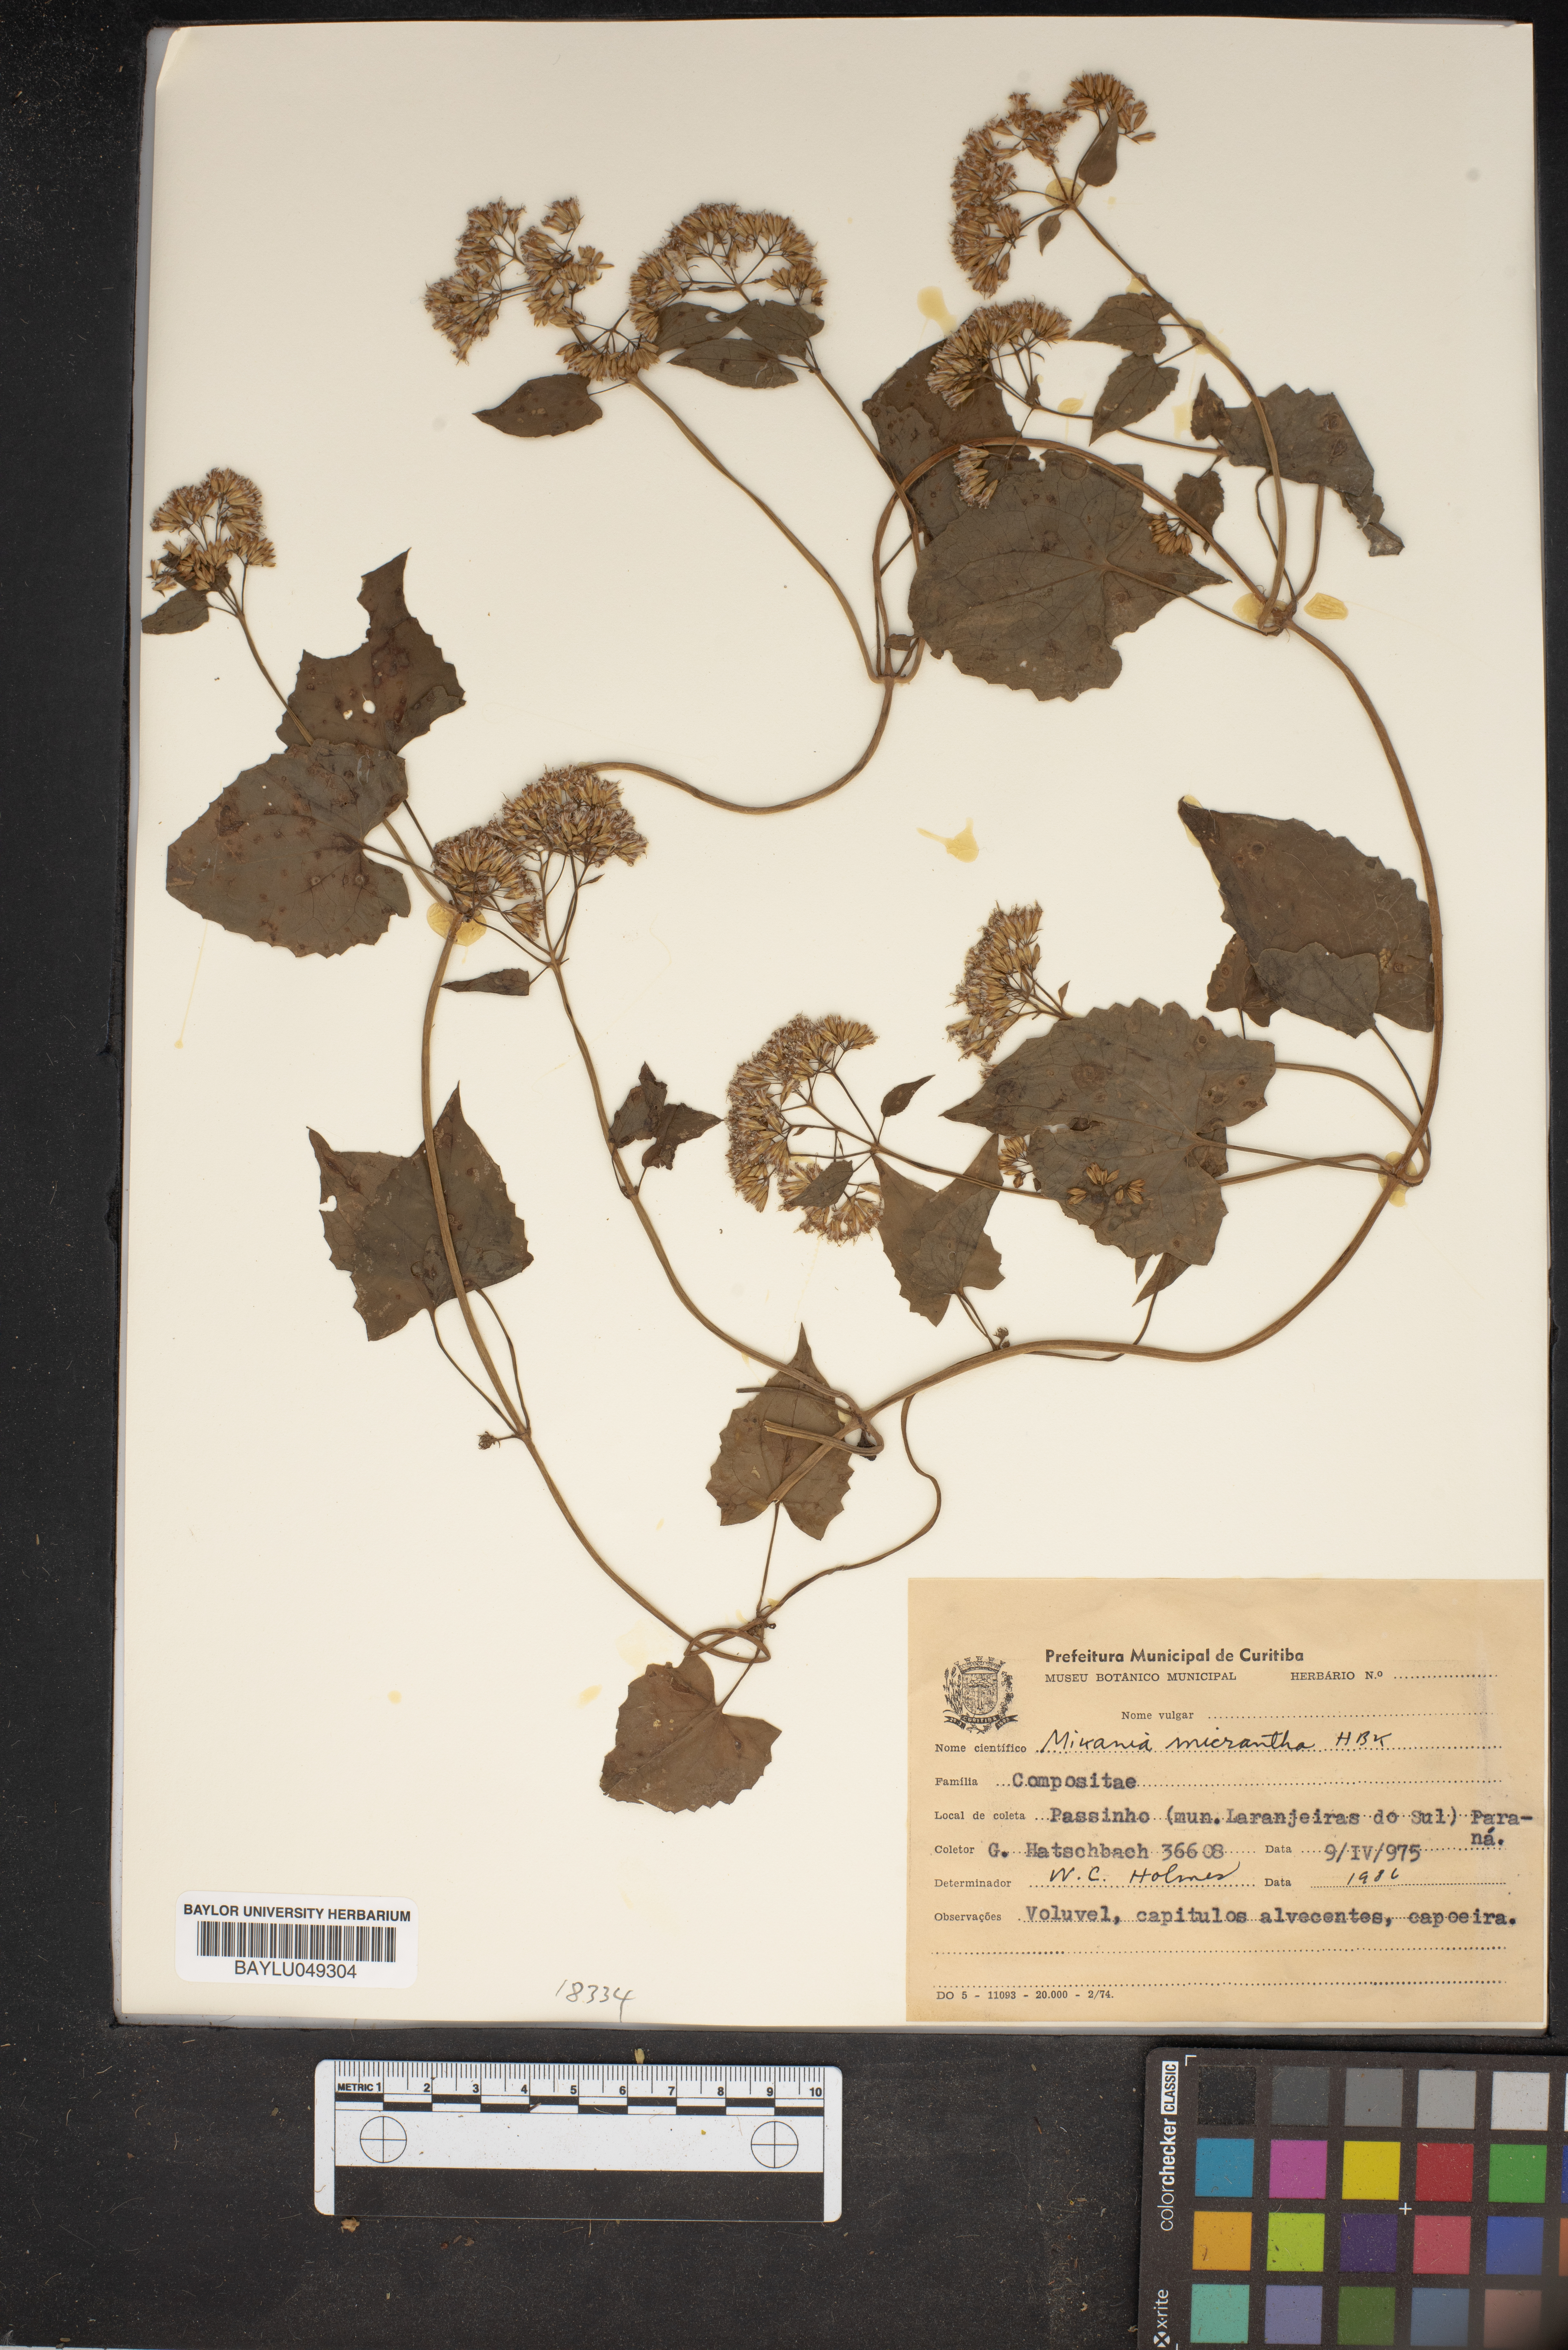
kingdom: Plantae
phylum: Tracheophyta
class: Magnoliopsida
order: Asterales
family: Asteraceae
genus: Mikania
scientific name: Mikania micrantha
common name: Mile-a-minute
